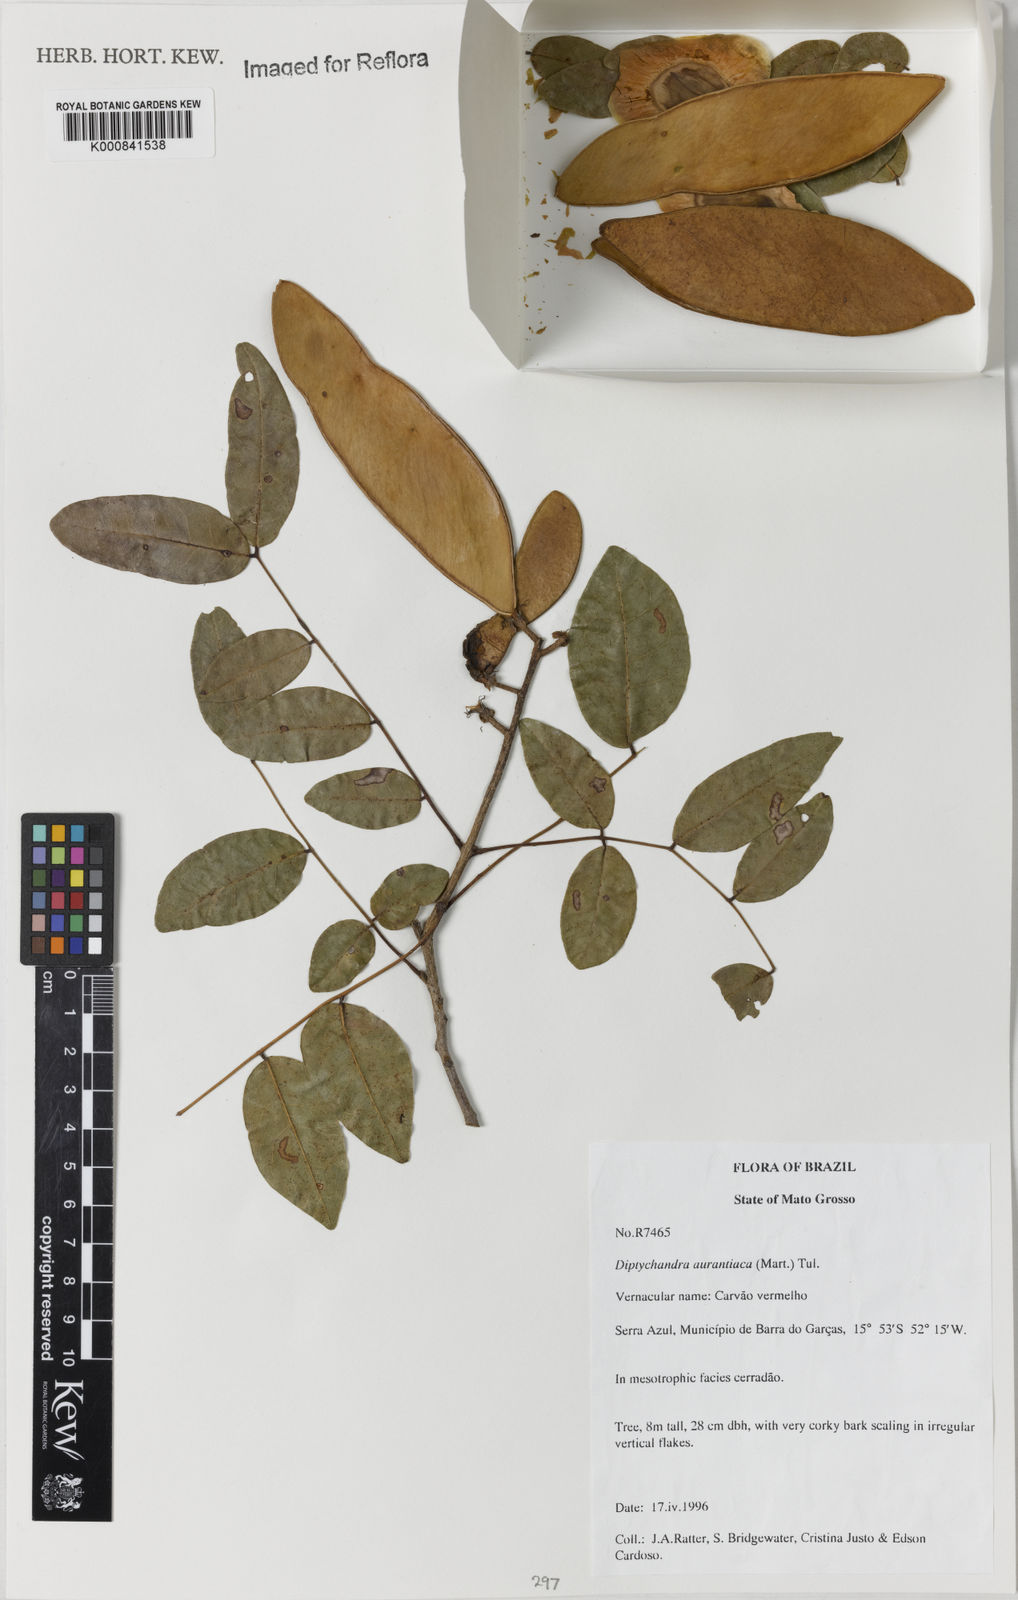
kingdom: Plantae
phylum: Tracheophyta
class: Magnoliopsida
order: Fabales
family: Fabaceae
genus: Diptychandra
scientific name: Diptychandra aurantiaca
